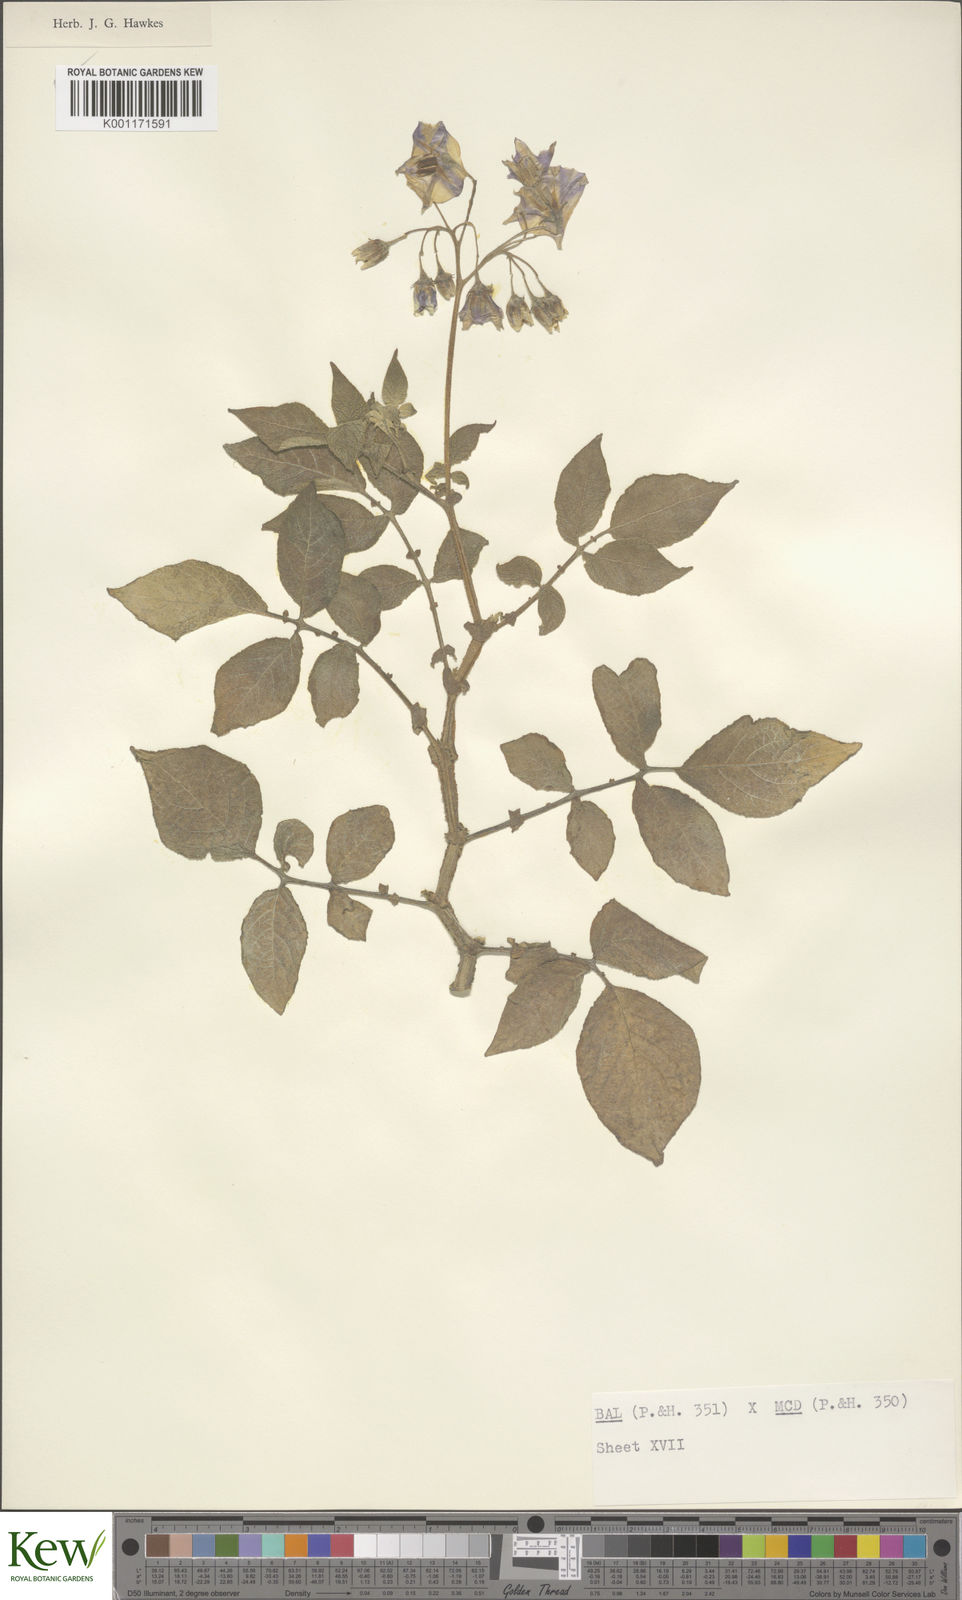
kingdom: Plantae
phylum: Tracheophyta
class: Magnoliopsida
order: Solanales
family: Solanaceae
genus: Solanum
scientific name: Solanum vernei
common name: Purple potato
